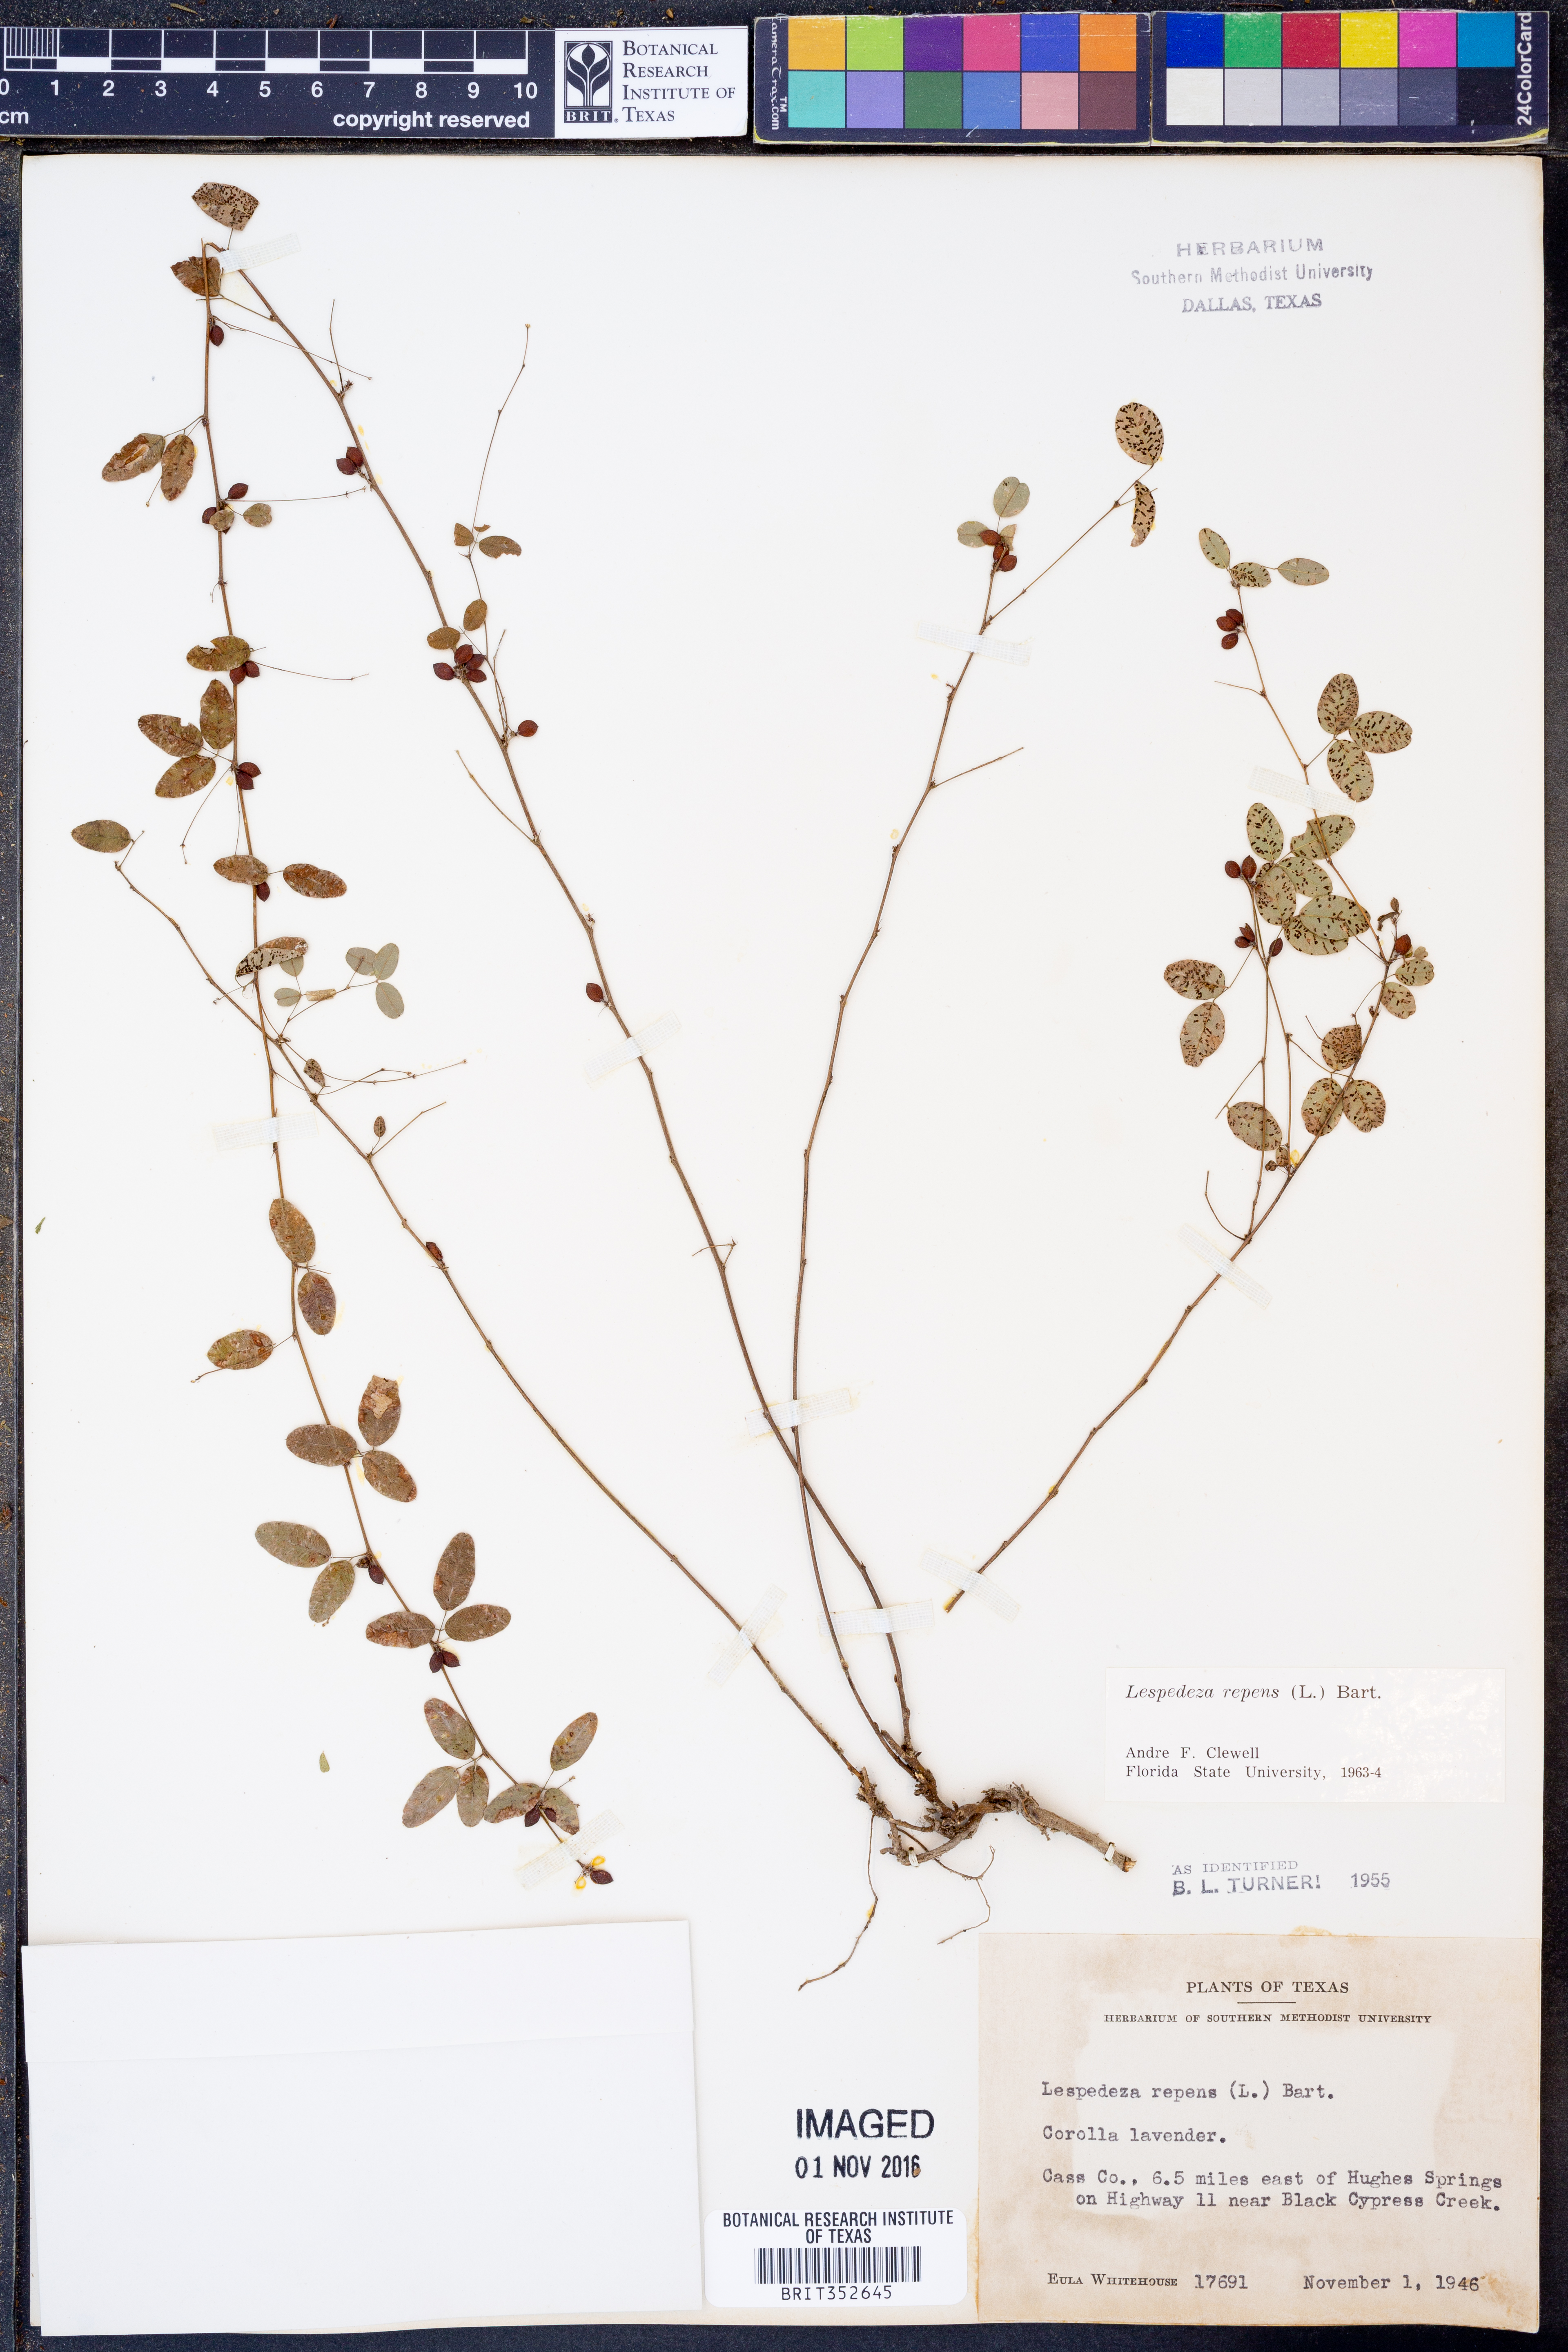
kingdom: Plantae
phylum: Tracheophyta
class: Magnoliopsida
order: Fabales
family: Fabaceae
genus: Lespedeza
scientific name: Lespedeza repens
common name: Creeping bush-clover
